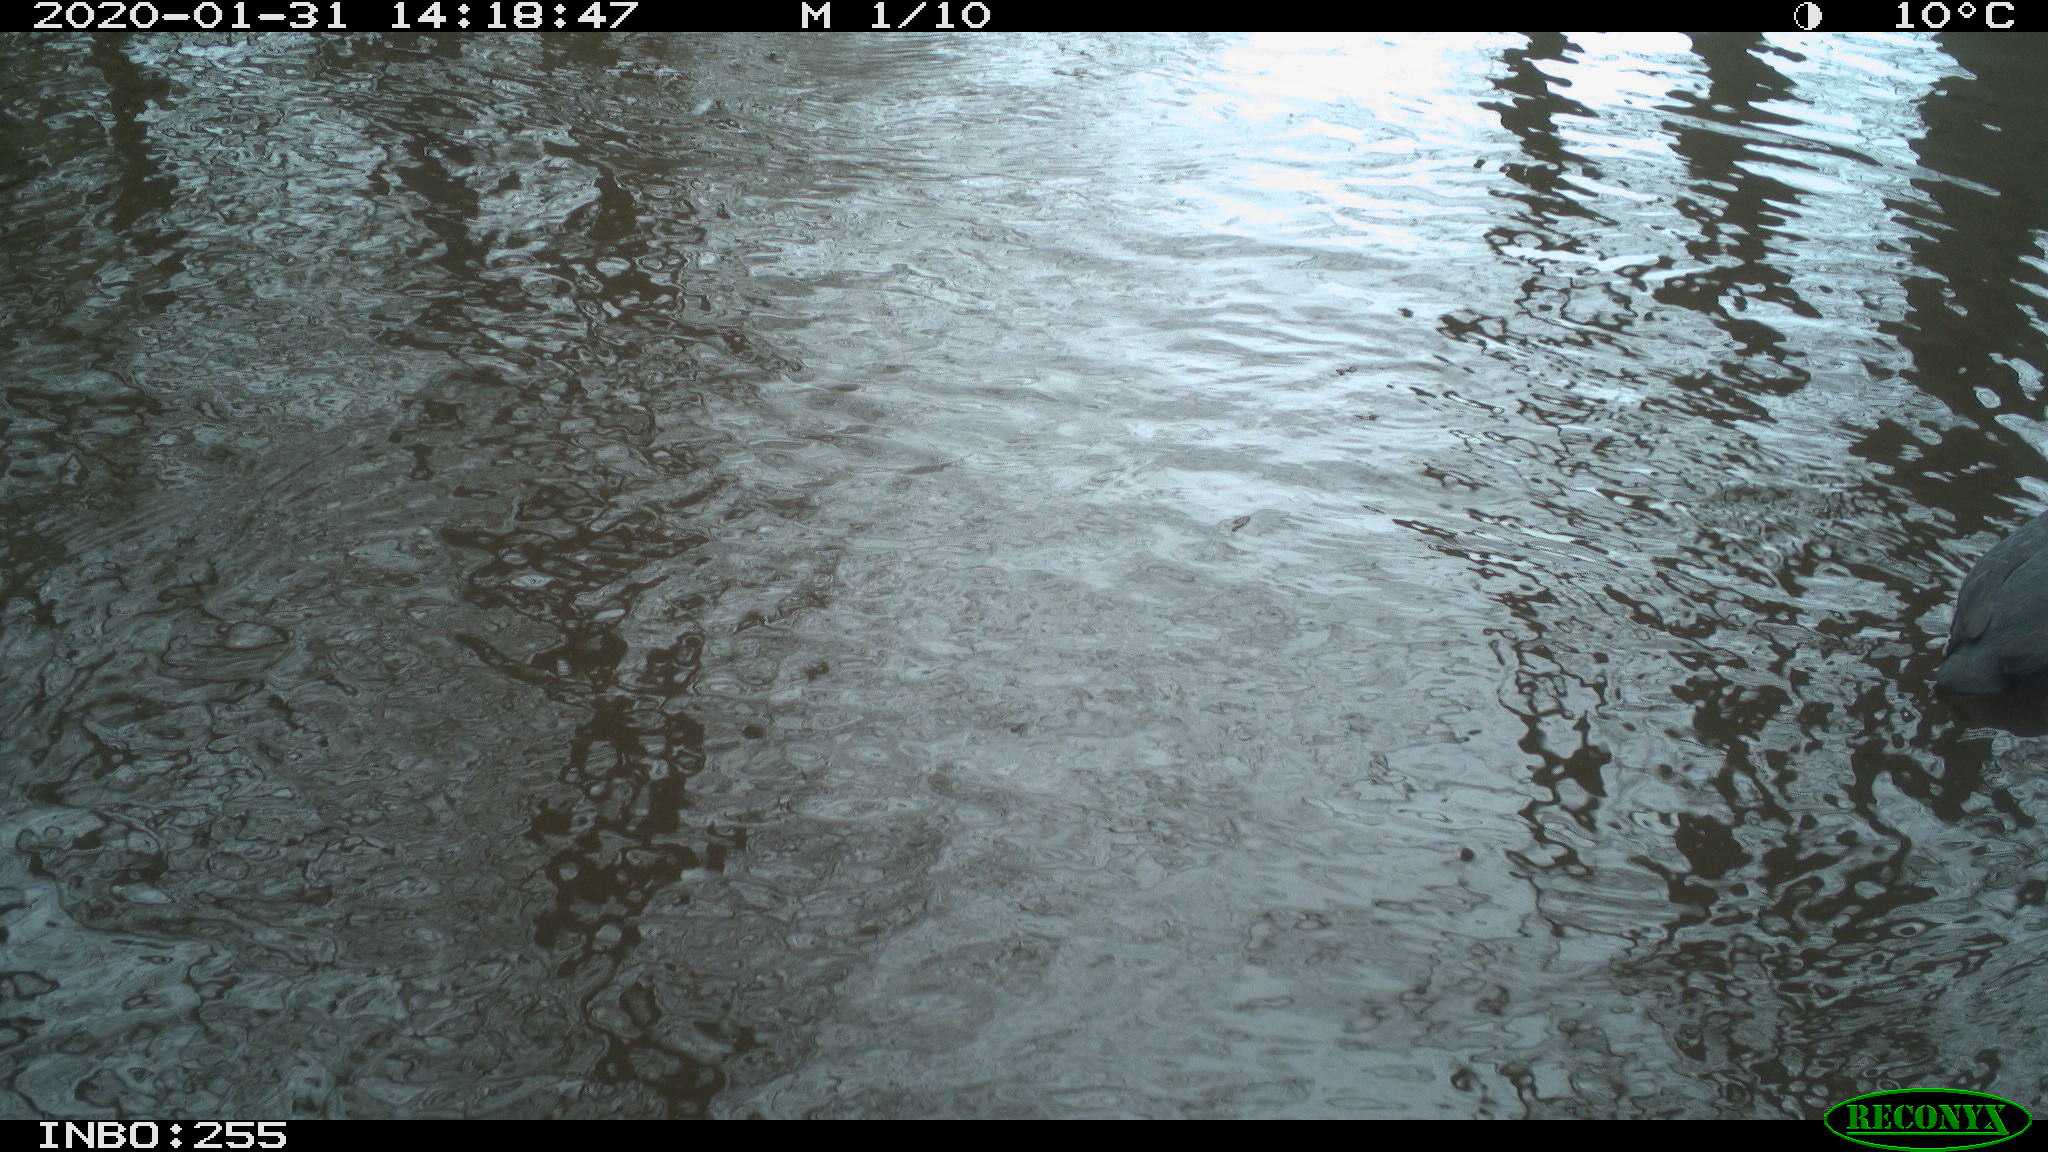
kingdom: Animalia
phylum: Chordata
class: Aves
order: Gruiformes
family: Rallidae
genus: Fulica
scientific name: Fulica atra
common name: Eurasian coot
